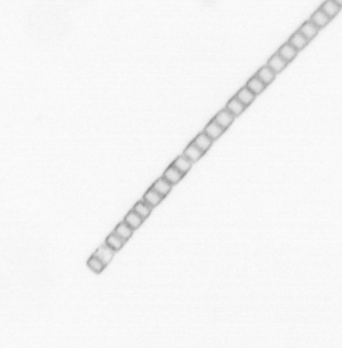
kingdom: Chromista
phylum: Ochrophyta
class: Bacillariophyceae
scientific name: Bacillariophyceae
